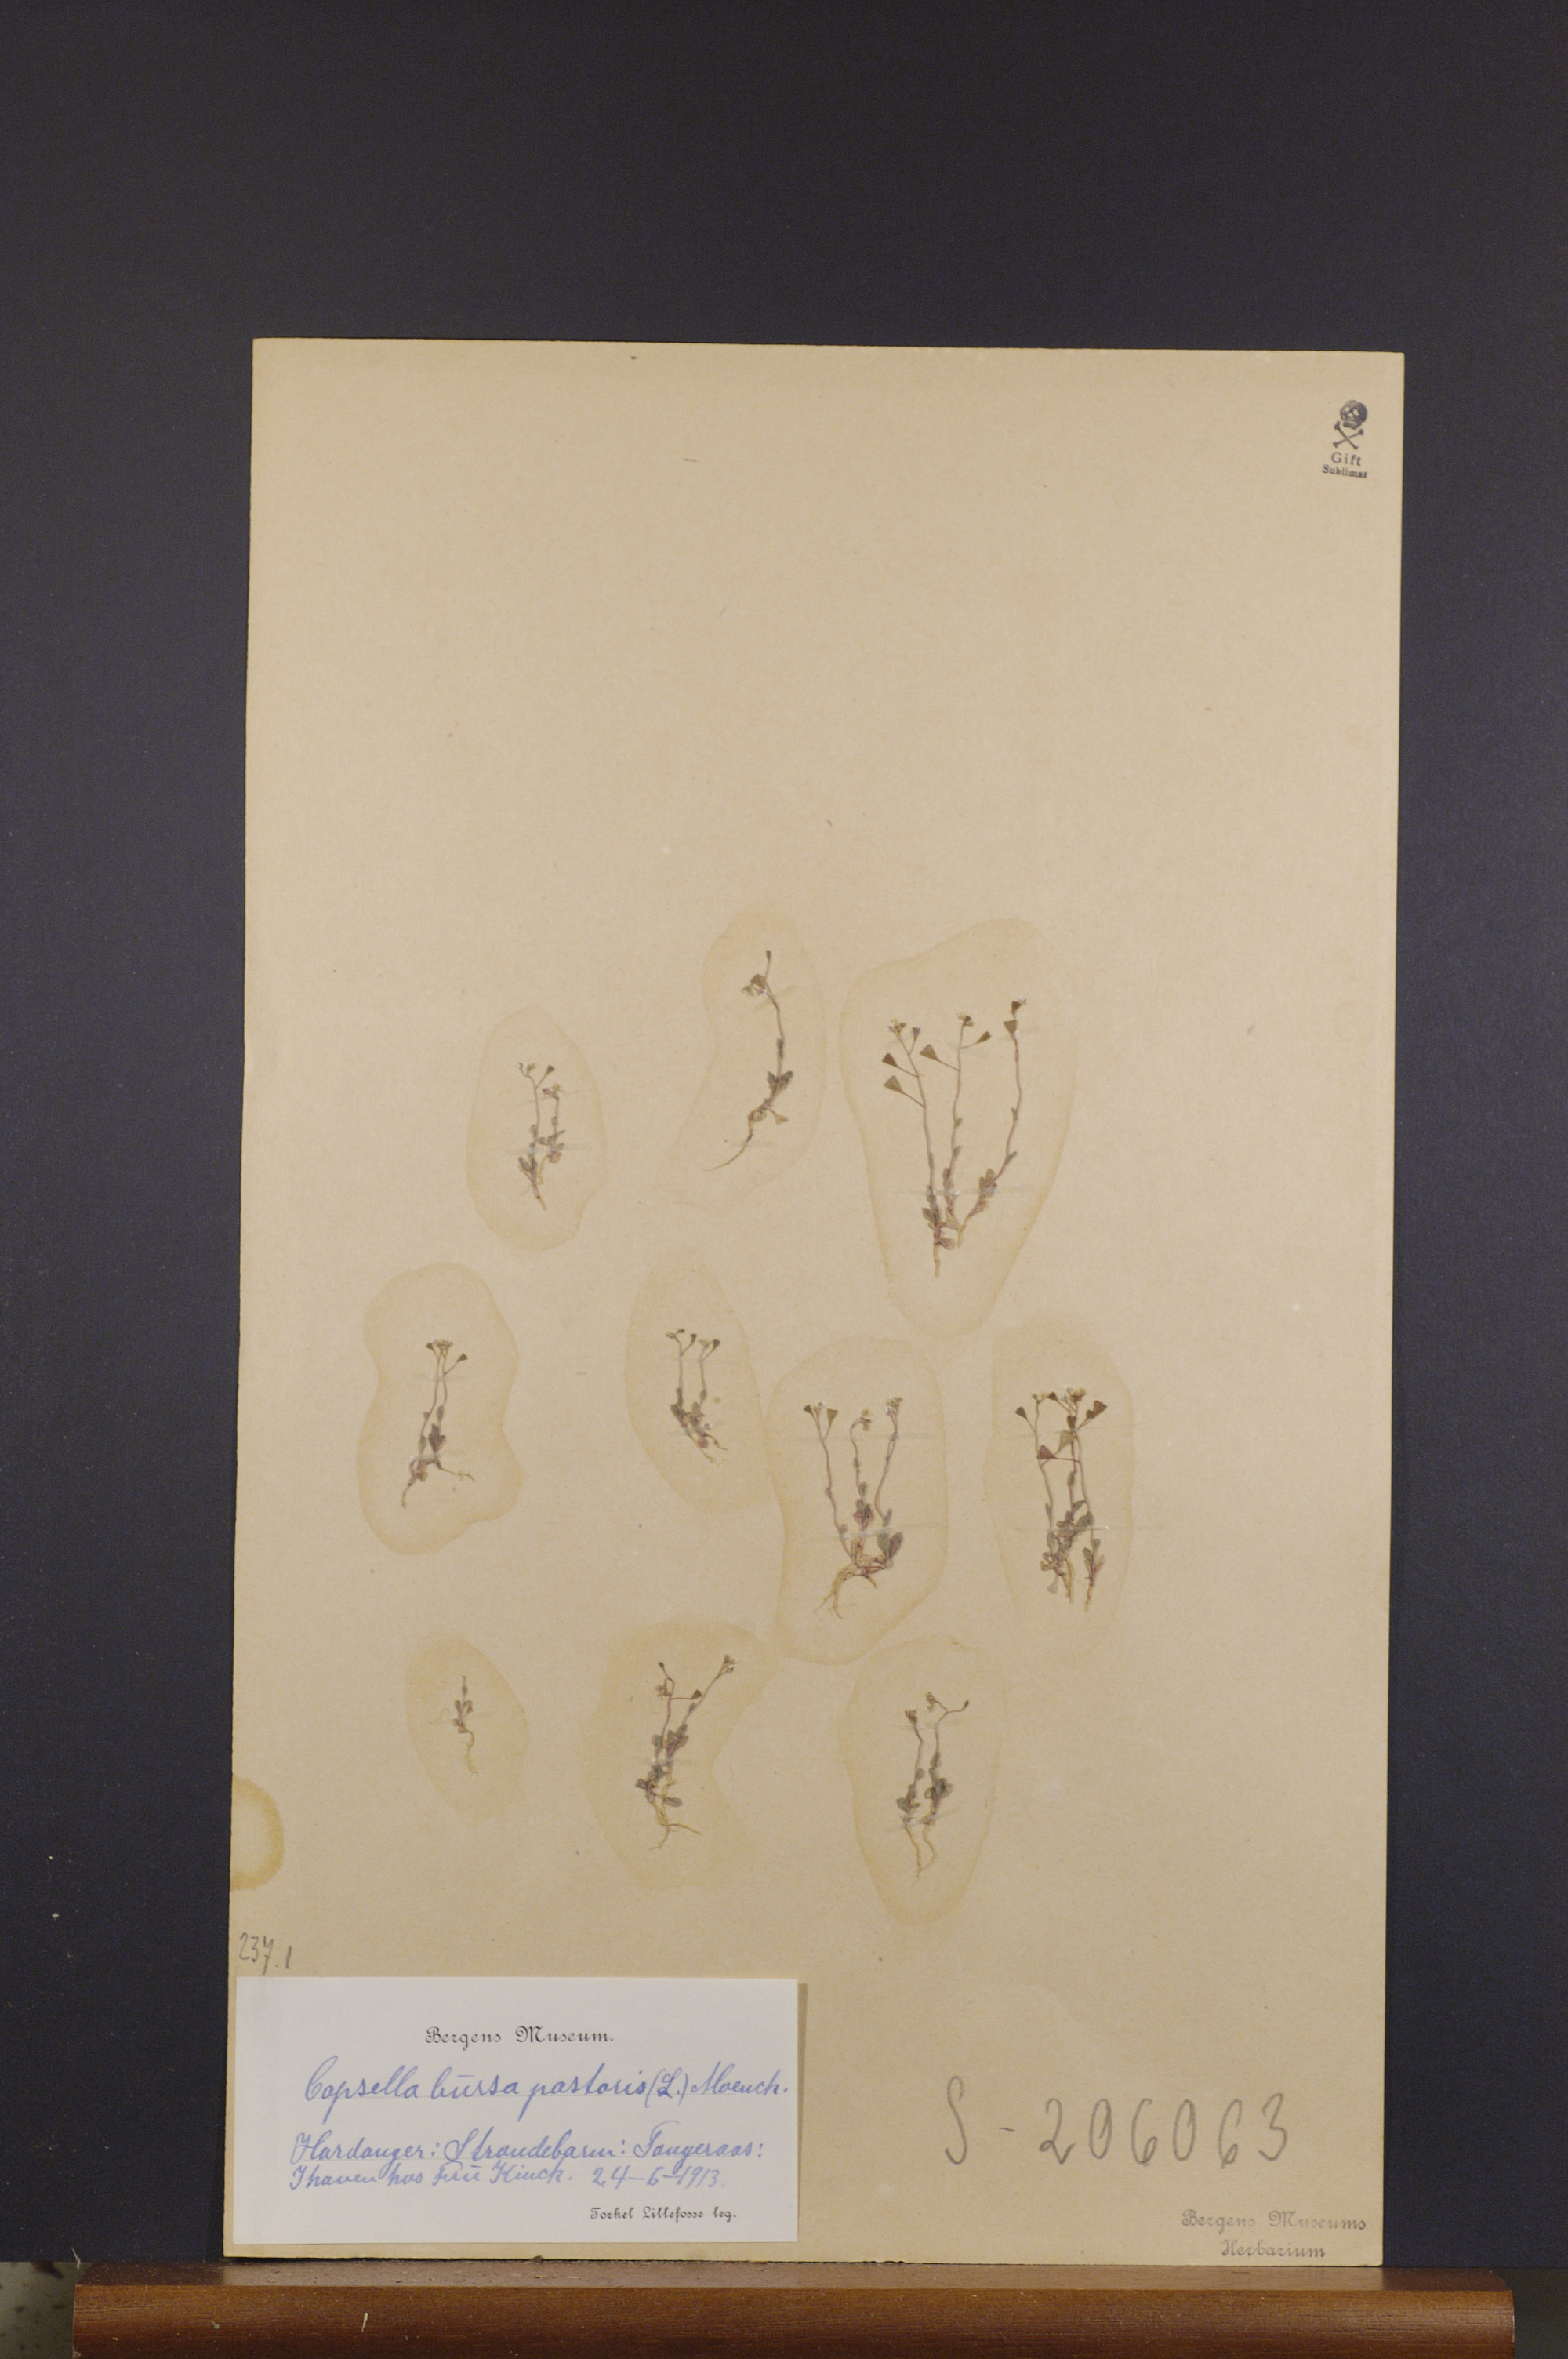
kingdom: Plantae
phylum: Tracheophyta
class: Magnoliopsida
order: Brassicales
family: Brassicaceae
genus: Capsella
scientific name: Capsella bursa-pastoris
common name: Shepherd's purse
